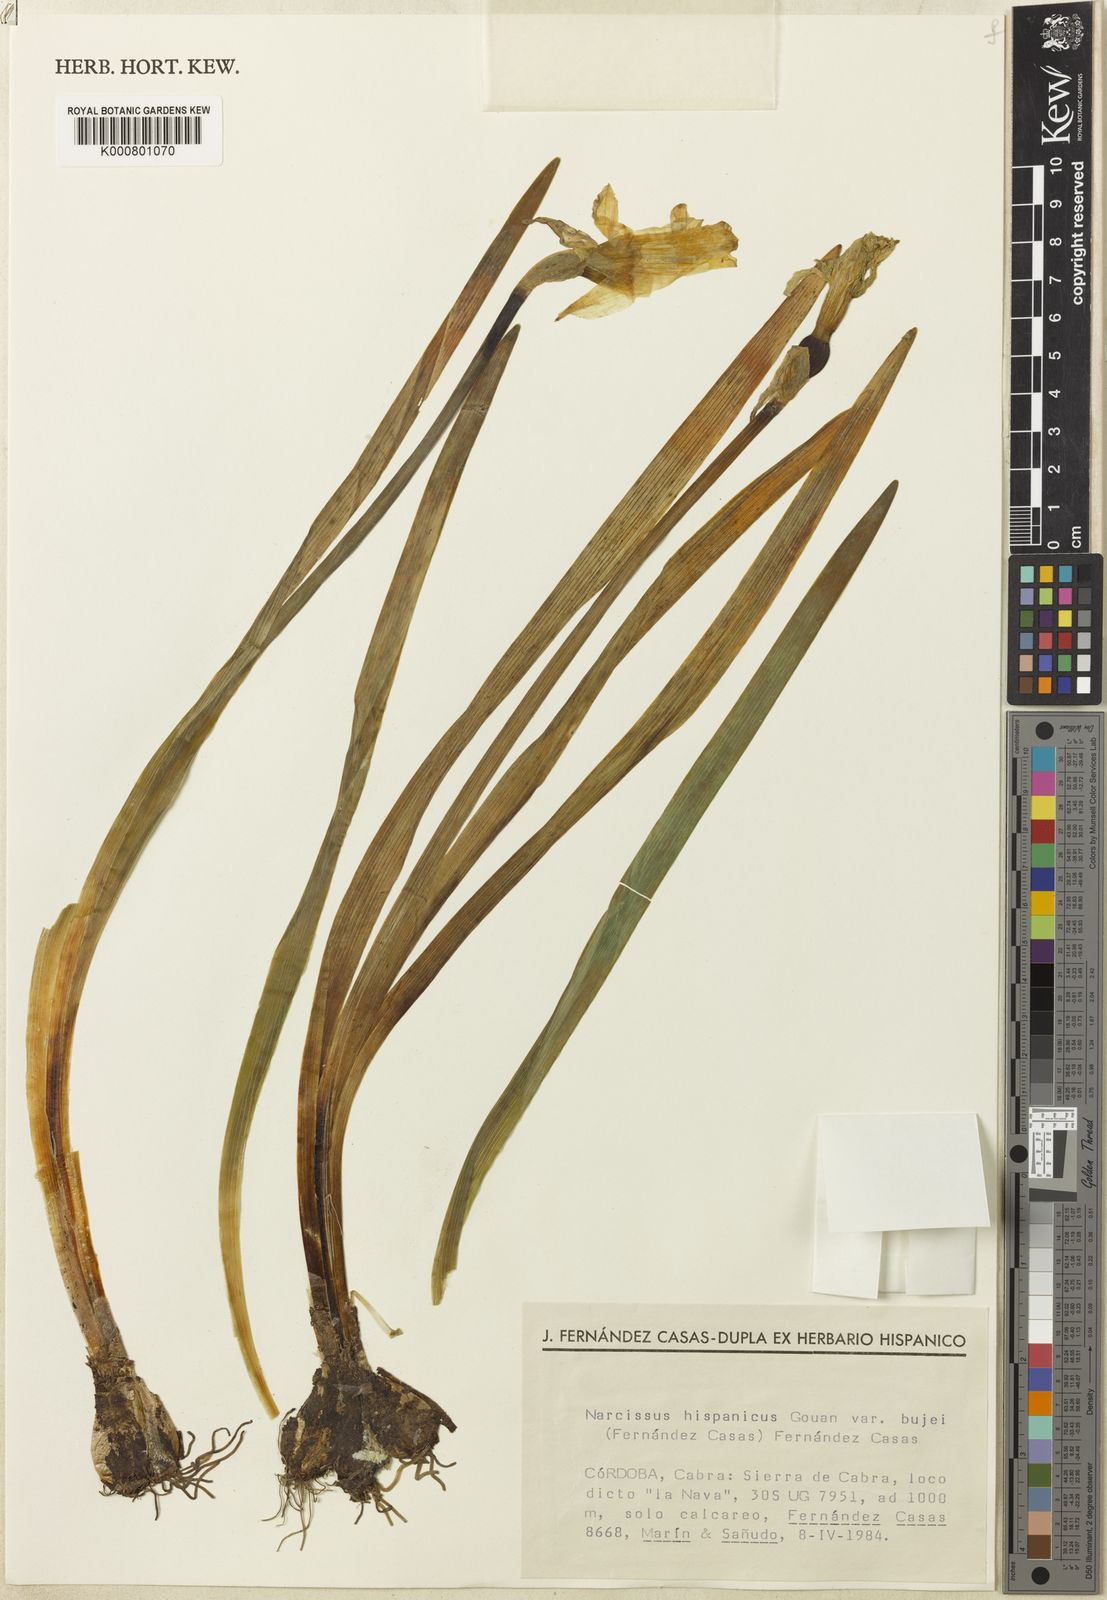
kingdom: Plantae
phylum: Tracheophyta
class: Liliopsida
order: Asparagales
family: Amaryllidaceae
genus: Narcissus
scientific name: Narcissus bujei
